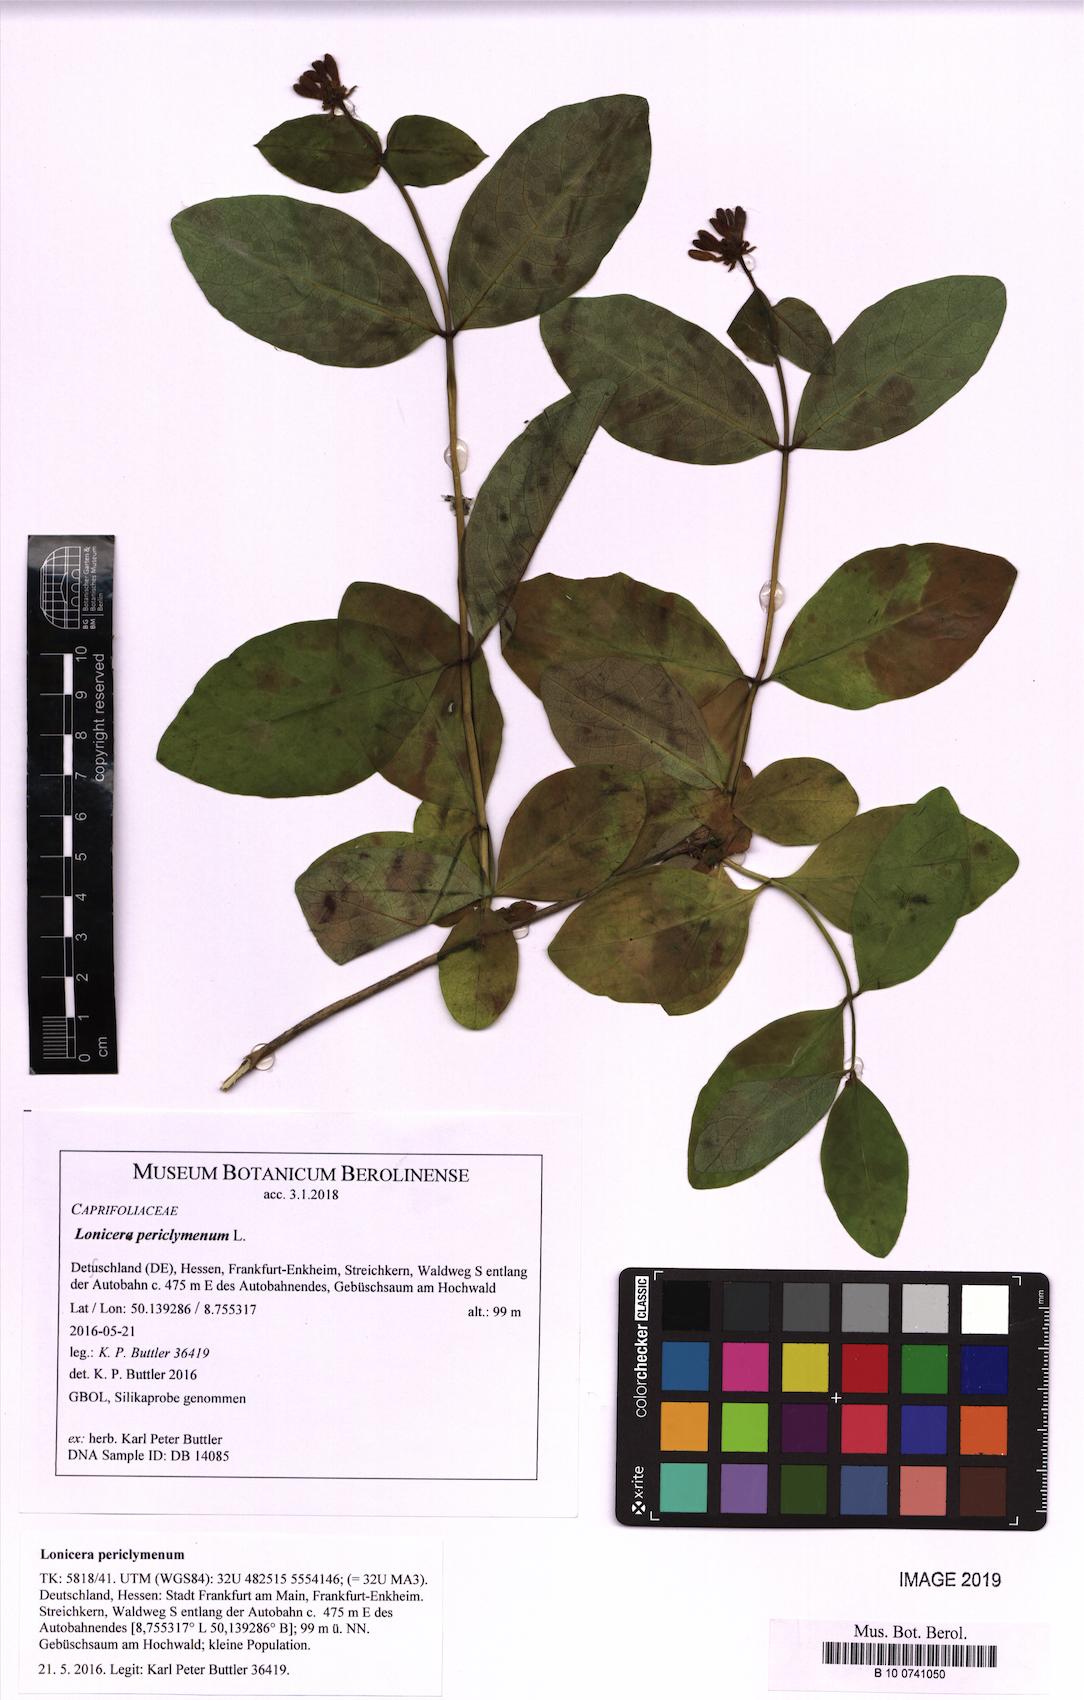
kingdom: Plantae
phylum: Tracheophyta
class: Magnoliopsida
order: Dipsacales
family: Caprifoliaceae
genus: Lonicera
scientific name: Lonicera periclymenum
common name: European honeysuckle
